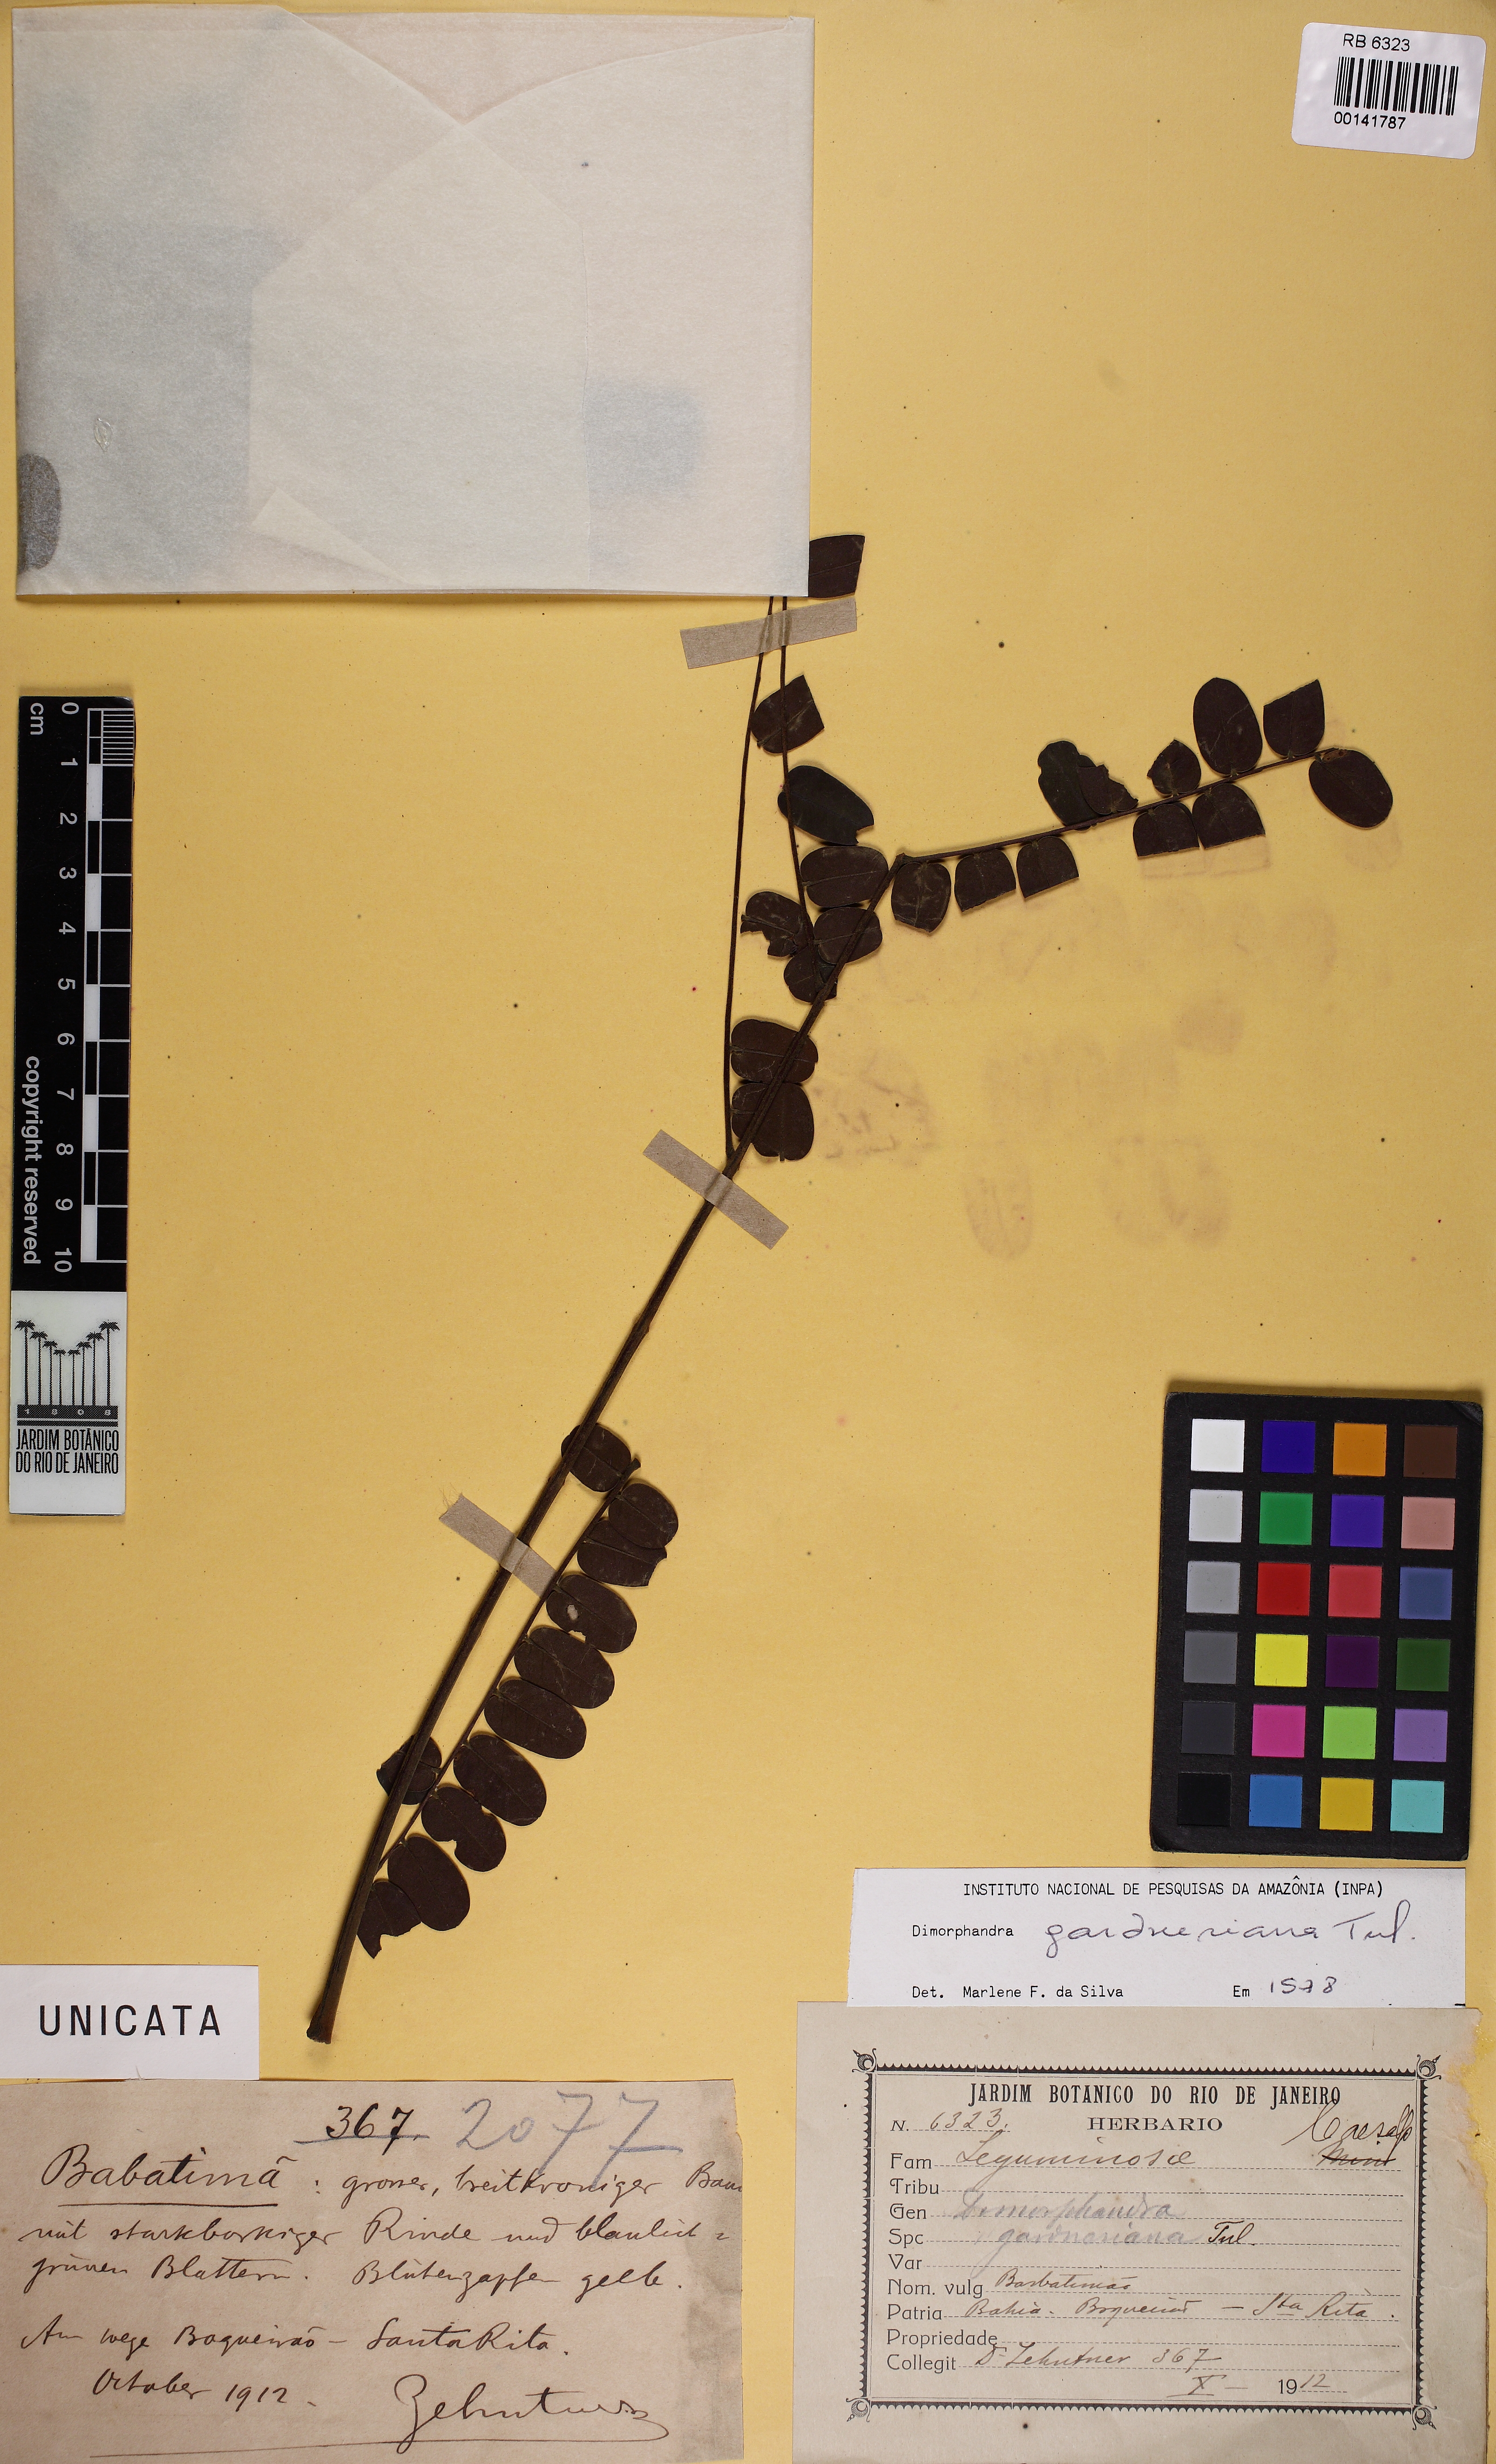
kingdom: Plantae
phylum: Tracheophyta
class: Magnoliopsida
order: Fabales
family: Fabaceae
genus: Dimorphandra
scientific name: Dimorphandra gardneriana
